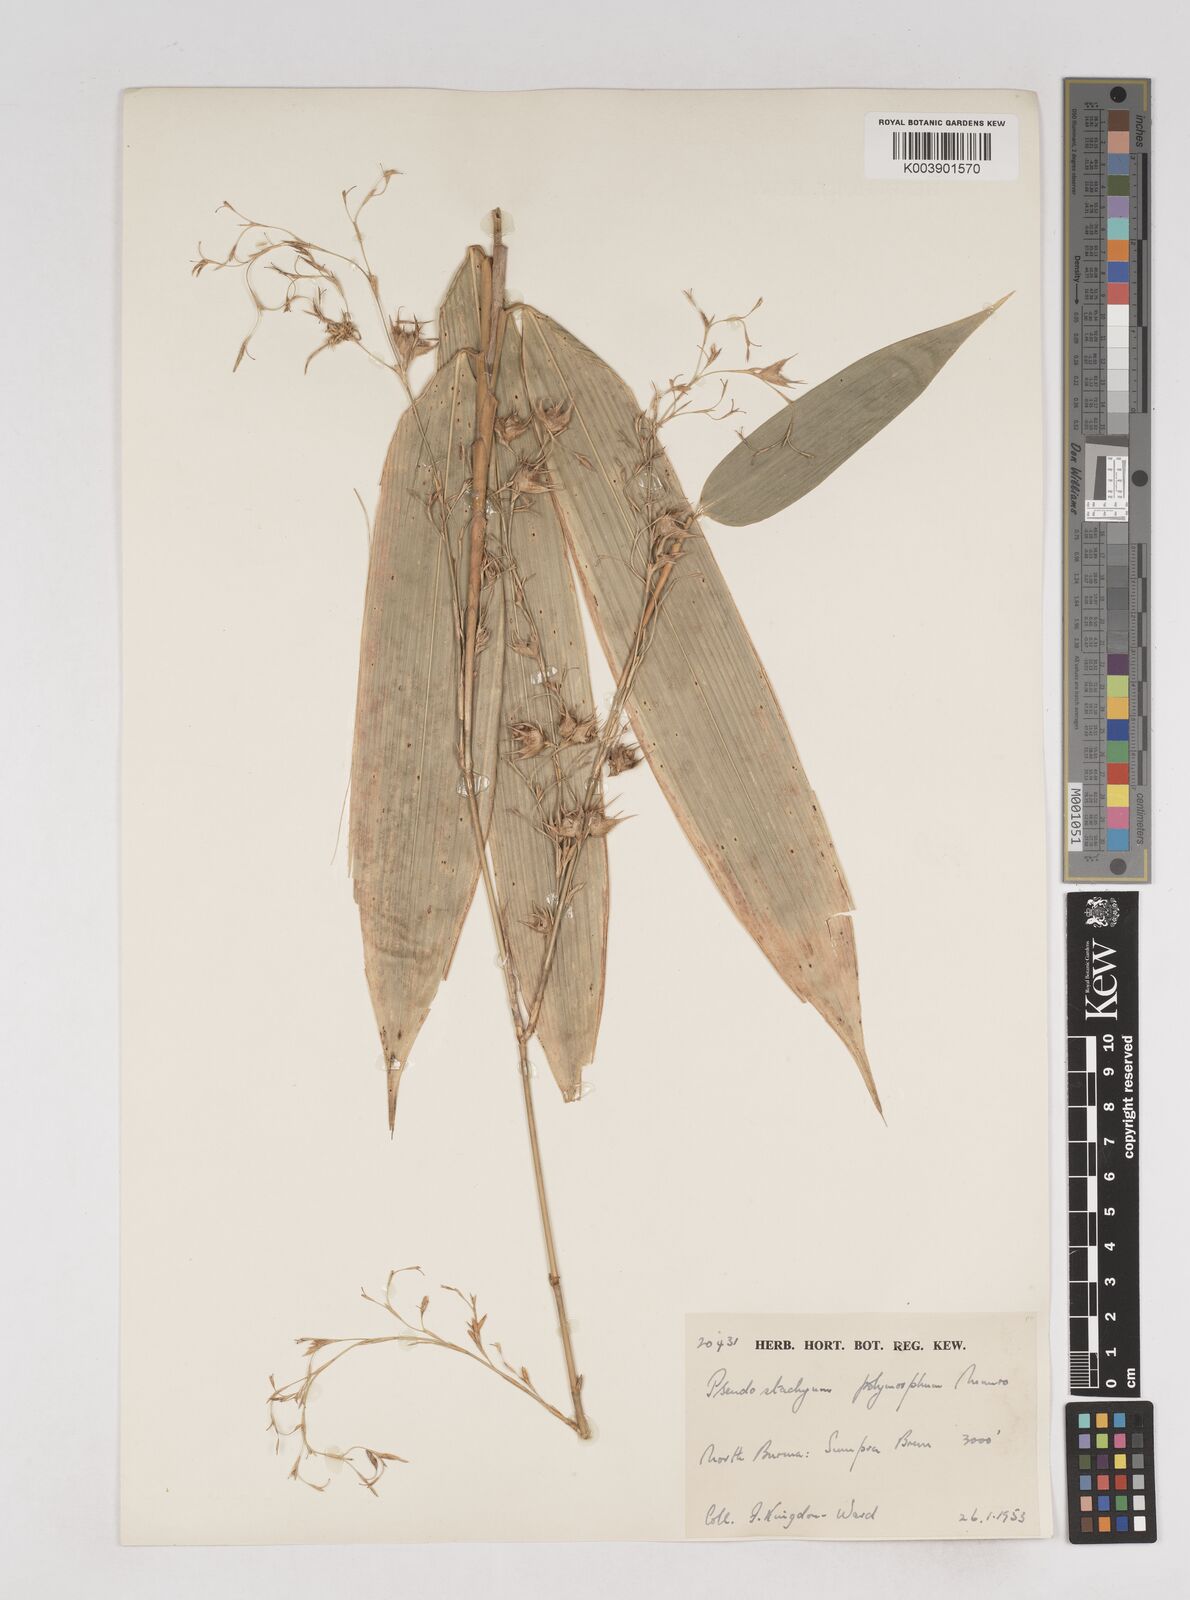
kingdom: Plantae
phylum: Tracheophyta
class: Liliopsida
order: Poales
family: Poaceae
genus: Pseudostachyum
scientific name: Pseudostachyum polymorphum
